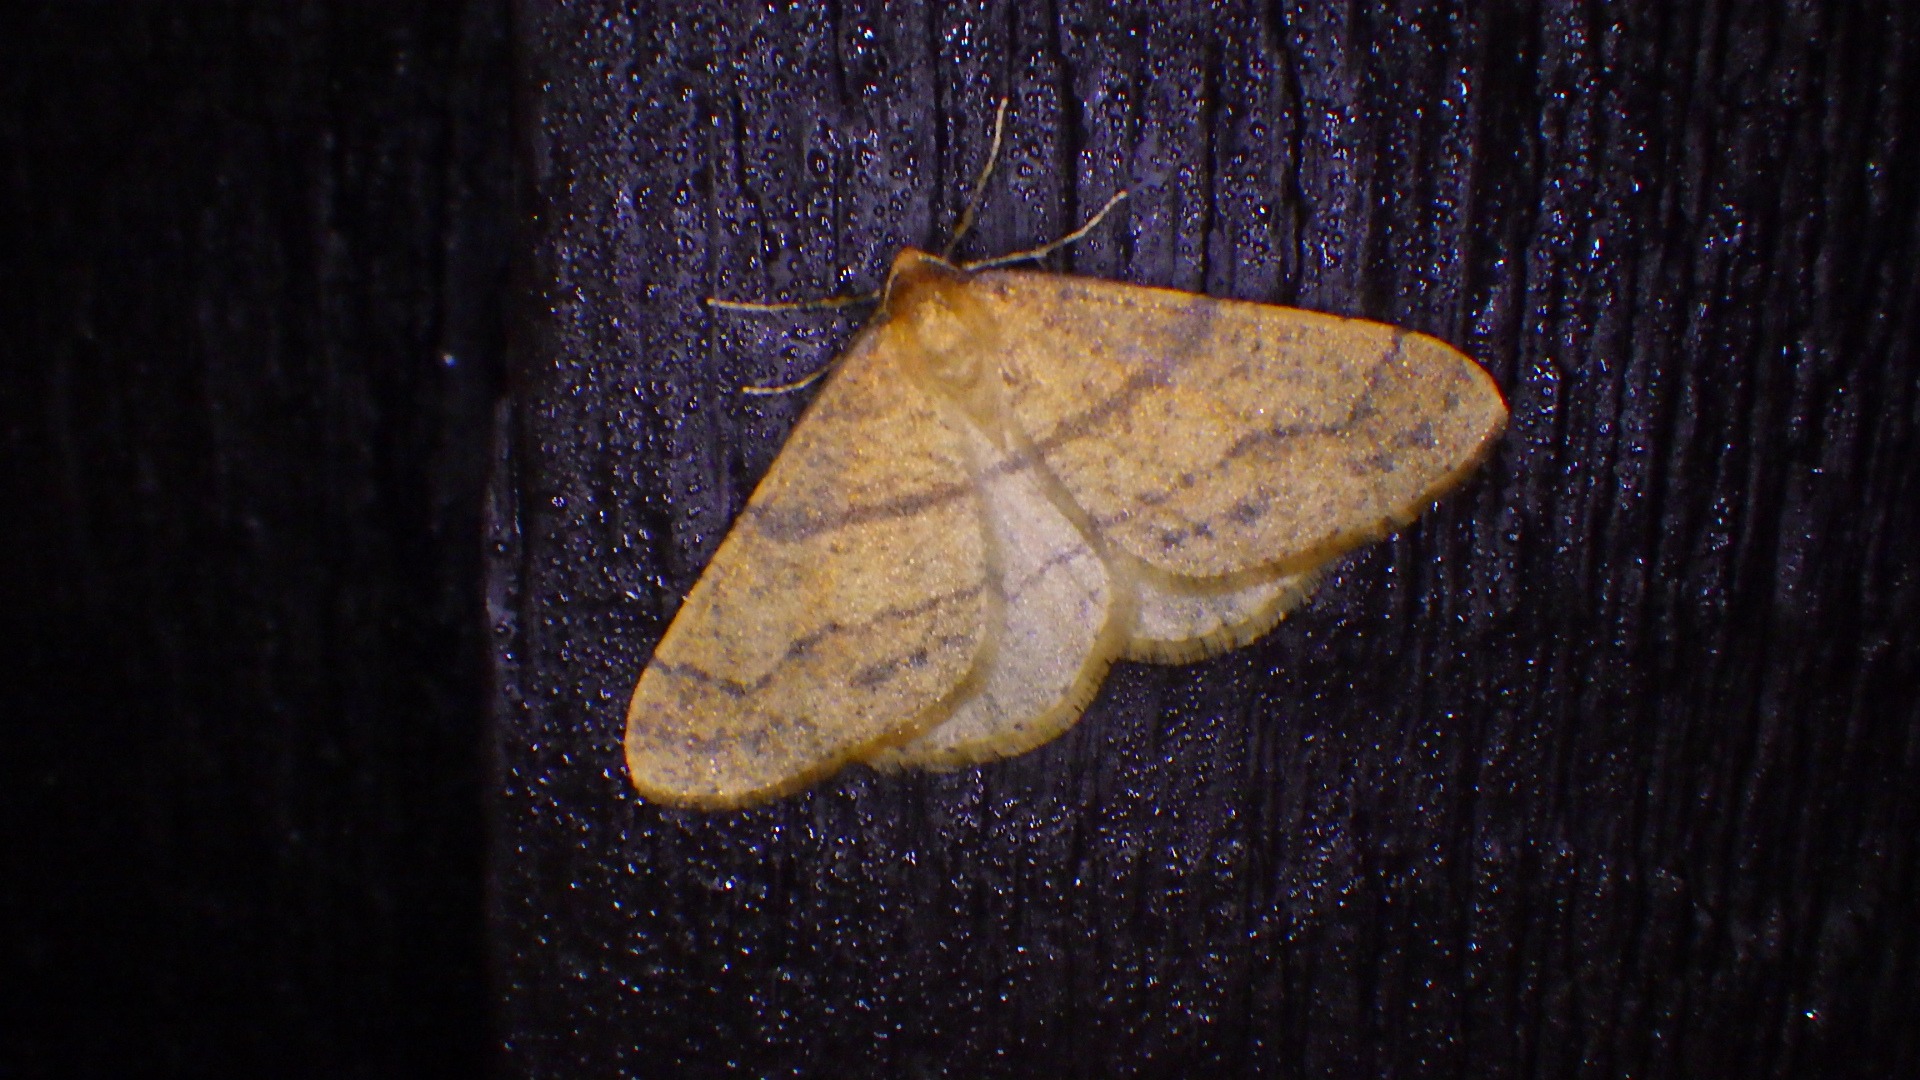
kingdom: Animalia
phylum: Arthropoda
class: Insecta
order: Lepidoptera
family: Geometridae
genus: Agriopis
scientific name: Agriopis aurantiaria
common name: Guldgul frostmåler
